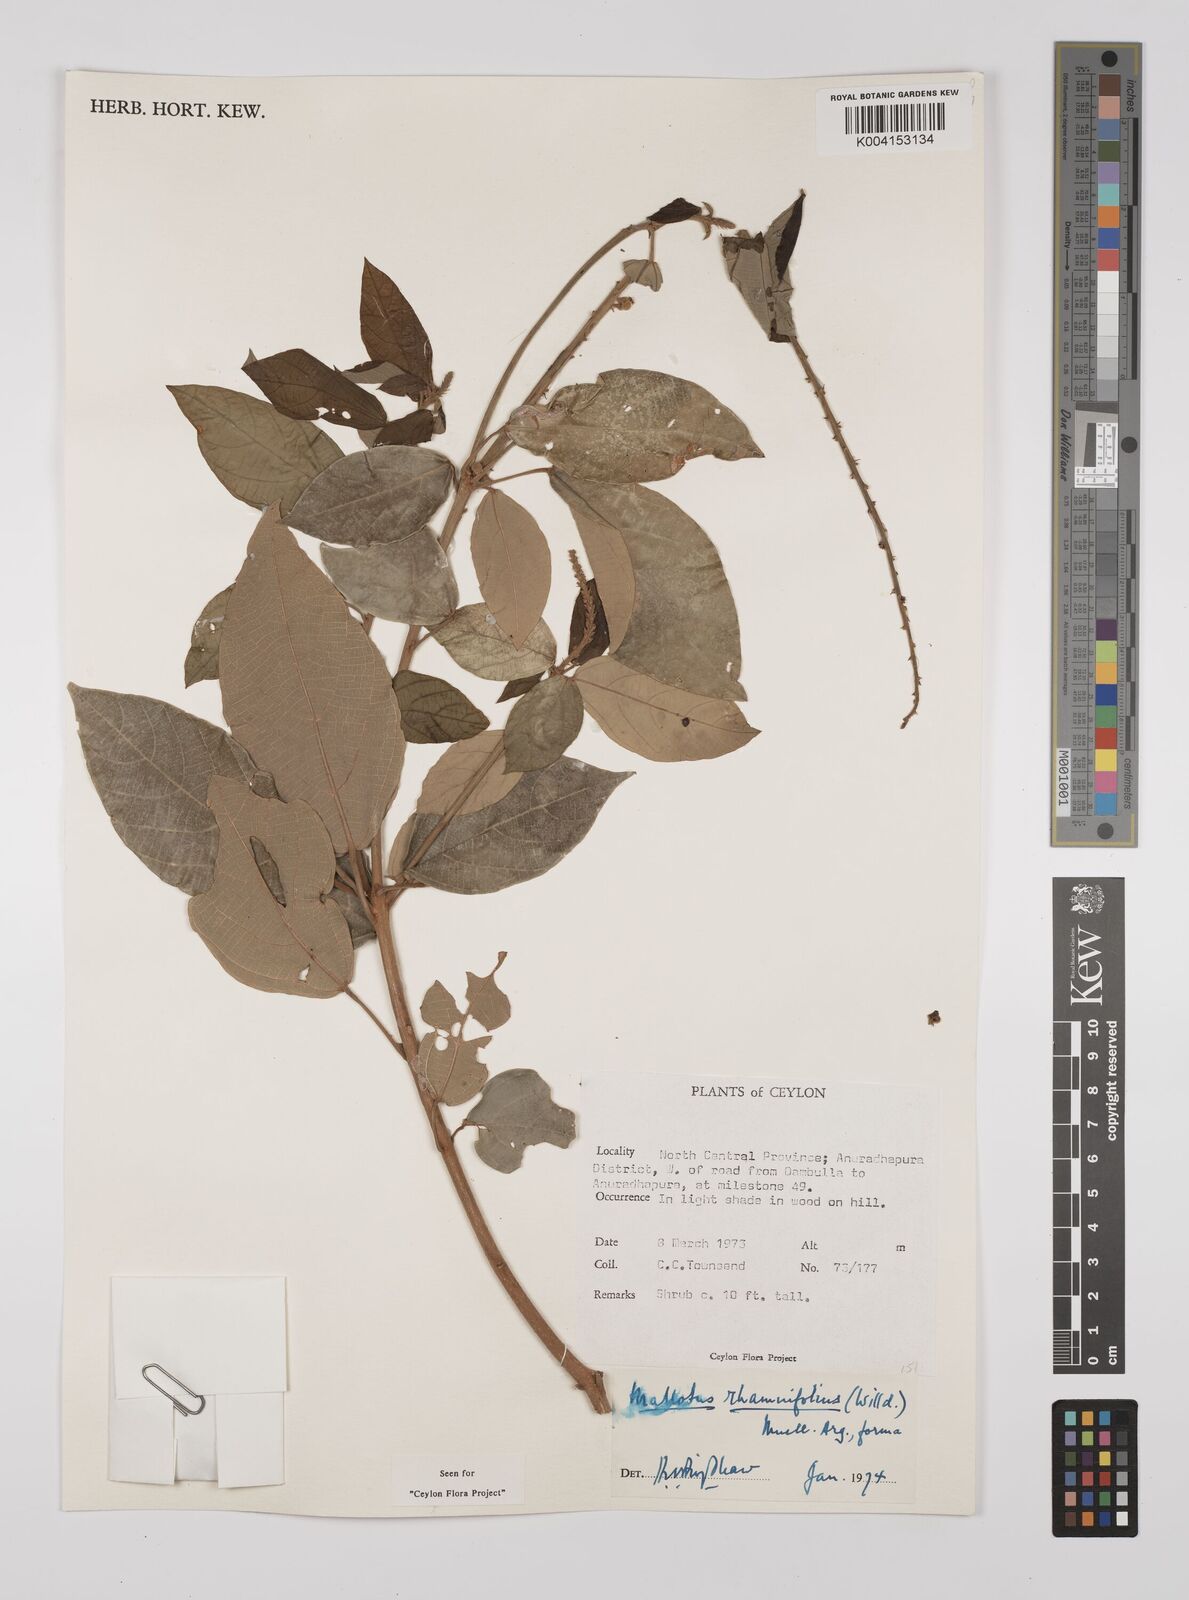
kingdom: Plantae
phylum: Tracheophyta
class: Magnoliopsida
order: Malpighiales
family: Euphorbiaceae
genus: Mallotus
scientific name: Mallotus rhamnifolius
